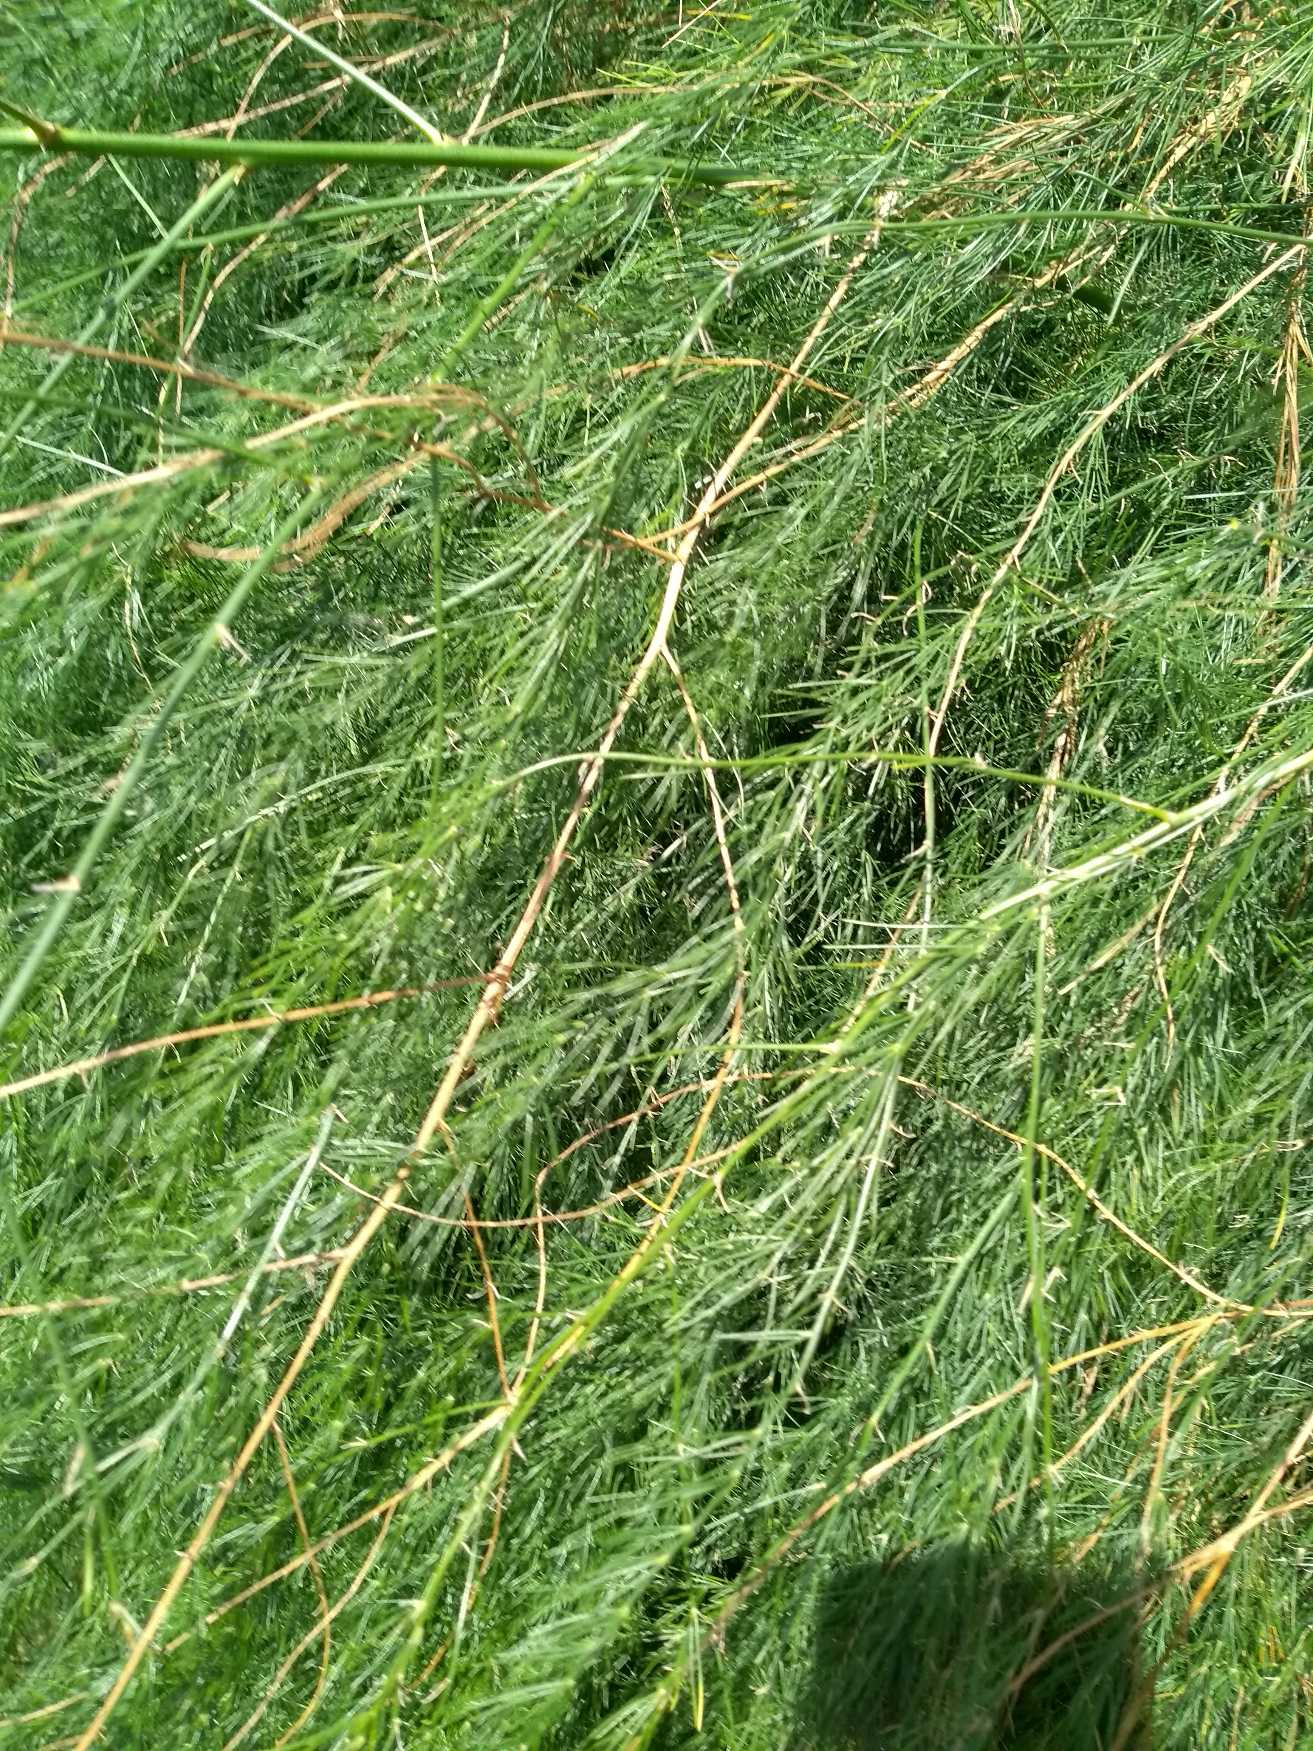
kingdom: Plantae
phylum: Tracheophyta
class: Liliopsida
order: Asparagales
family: Asparagaceae
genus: Asparagus
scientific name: Asparagus officinalis
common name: Asparges
